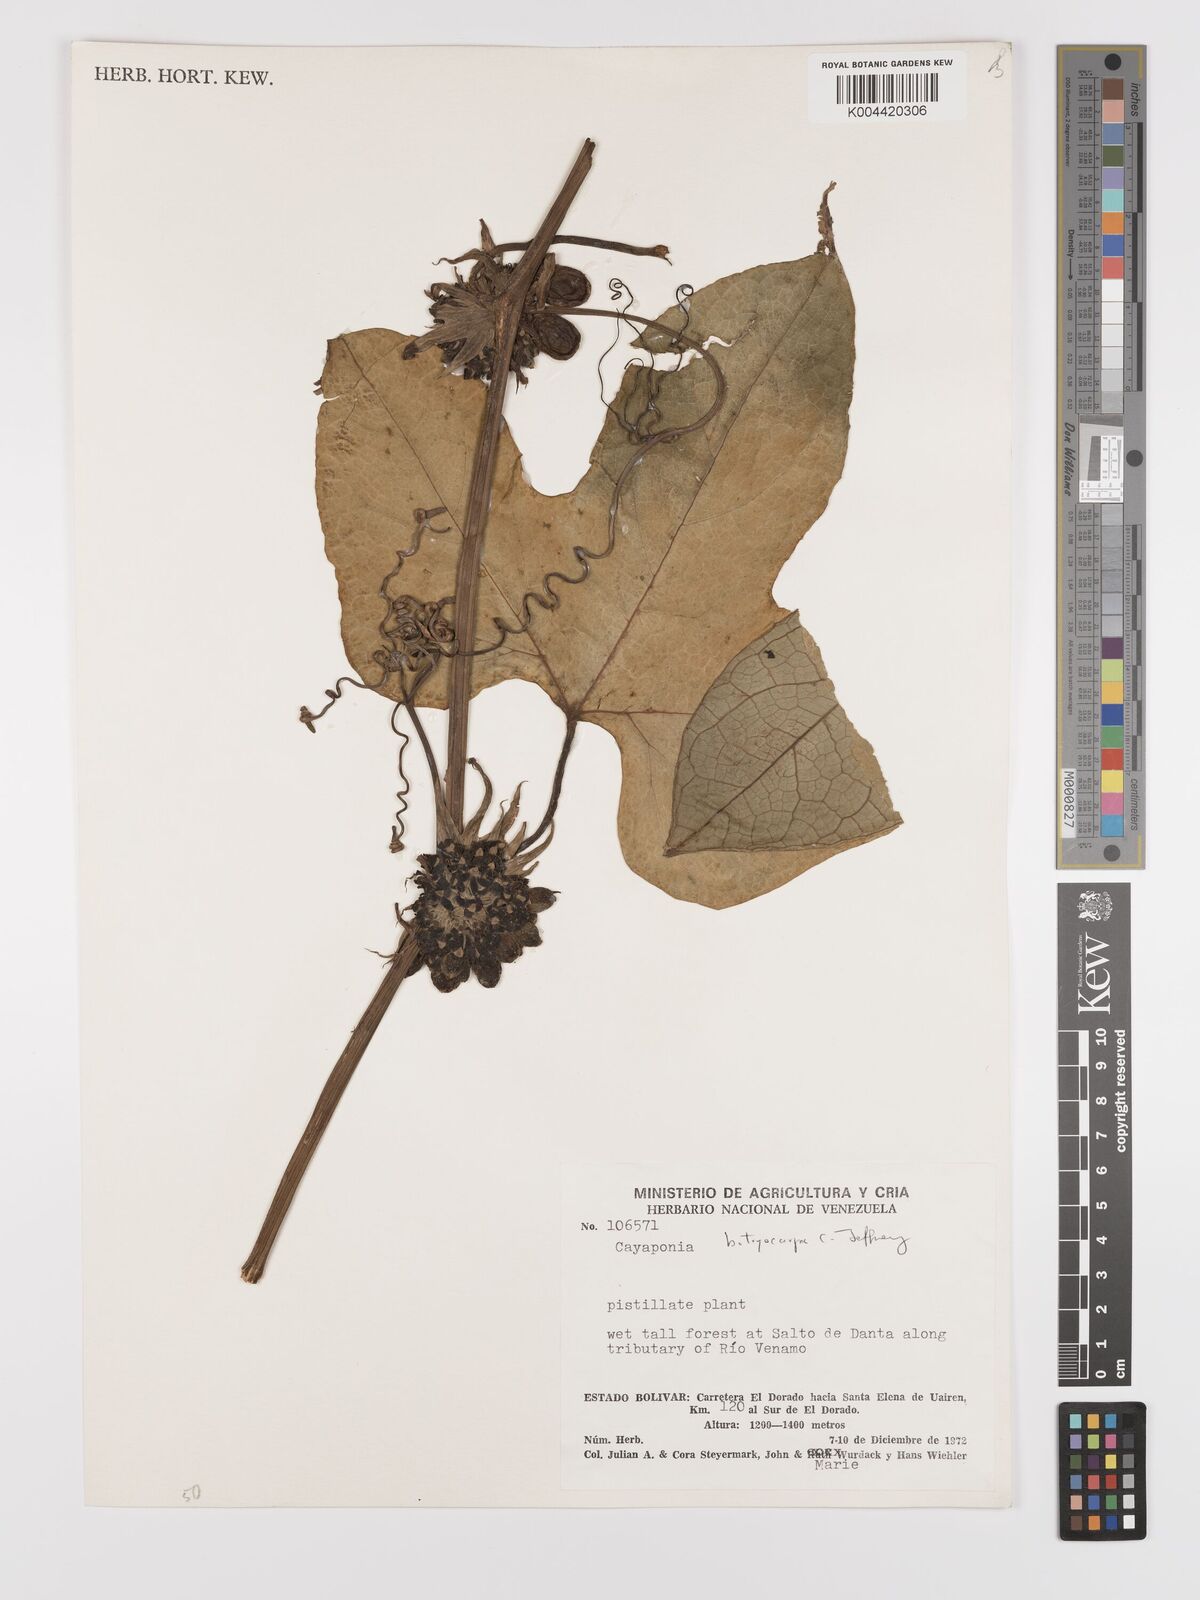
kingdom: Plantae
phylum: Tracheophyta
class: Magnoliopsida
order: Cucurbitales
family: Cucurbitaceae
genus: Cayaponia
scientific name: Cayaponia botryocarpa
